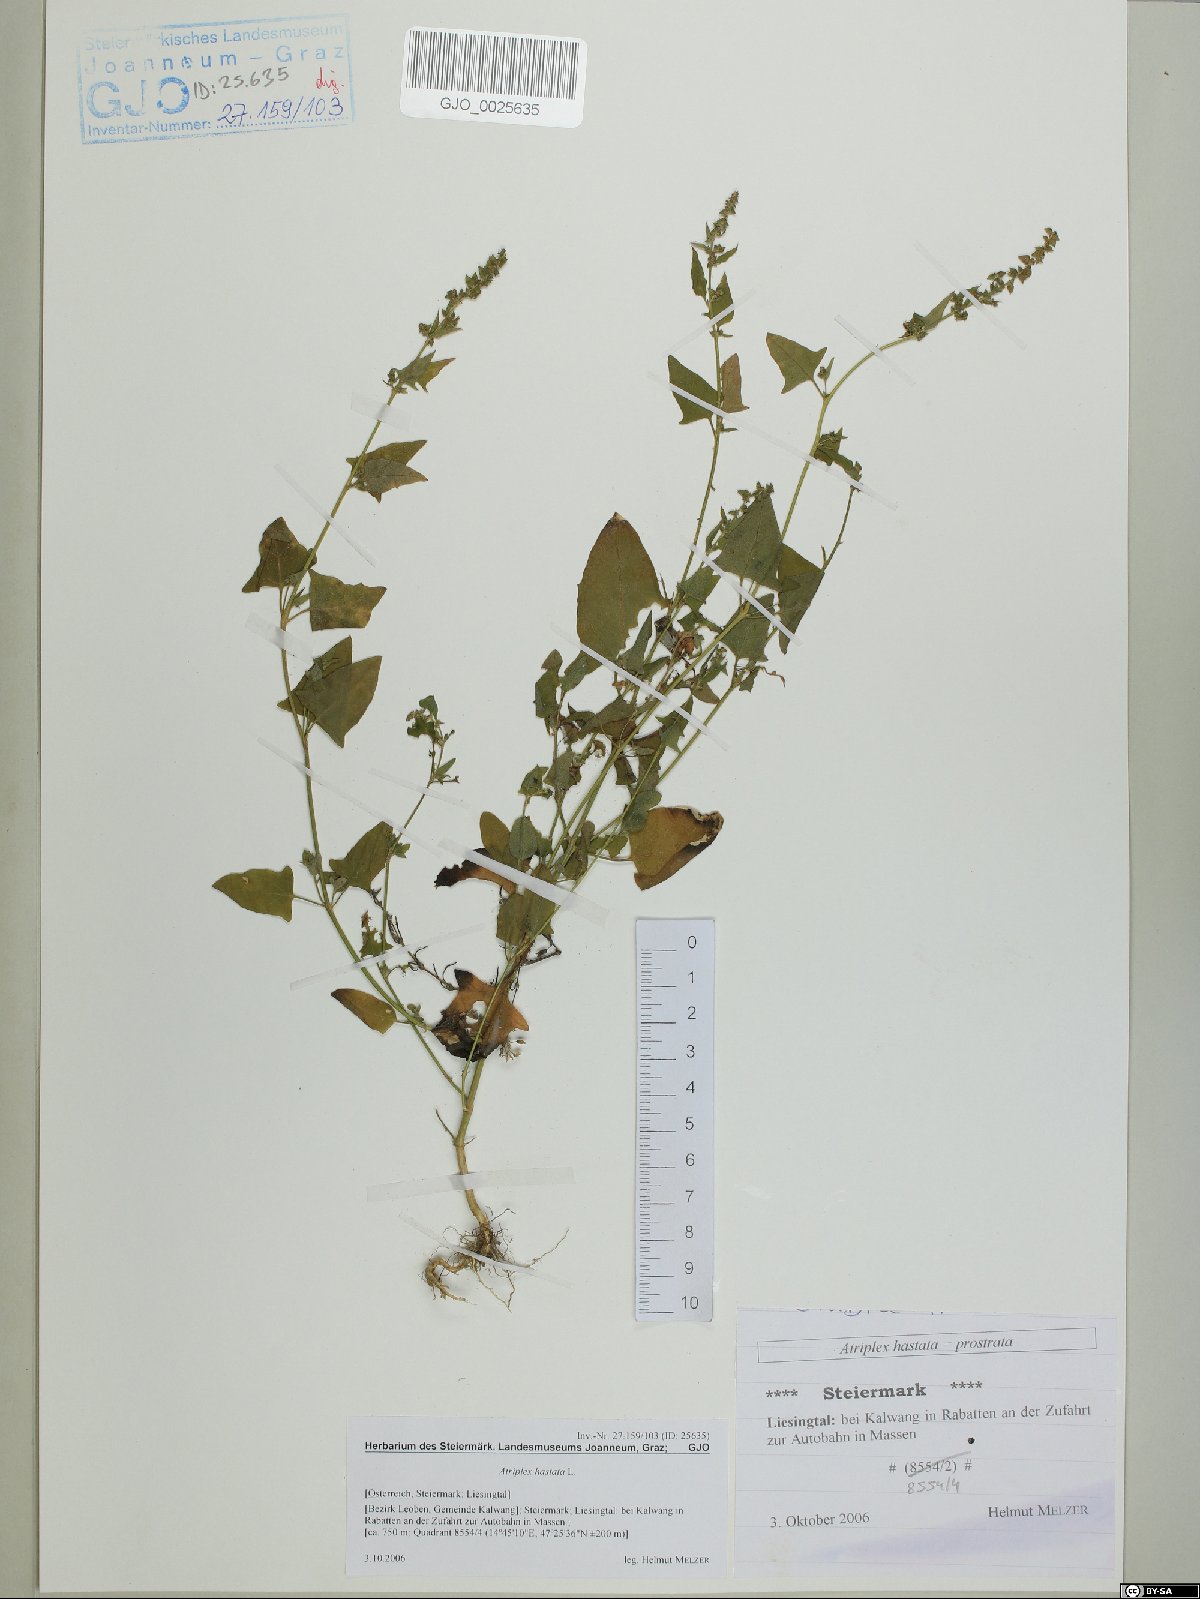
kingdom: Plantae
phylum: Tracheophyta
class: Magnoliopsida
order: Caryophyllales
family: Amaranthaceae
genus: Atriplex
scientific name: Atriplex calotheca
